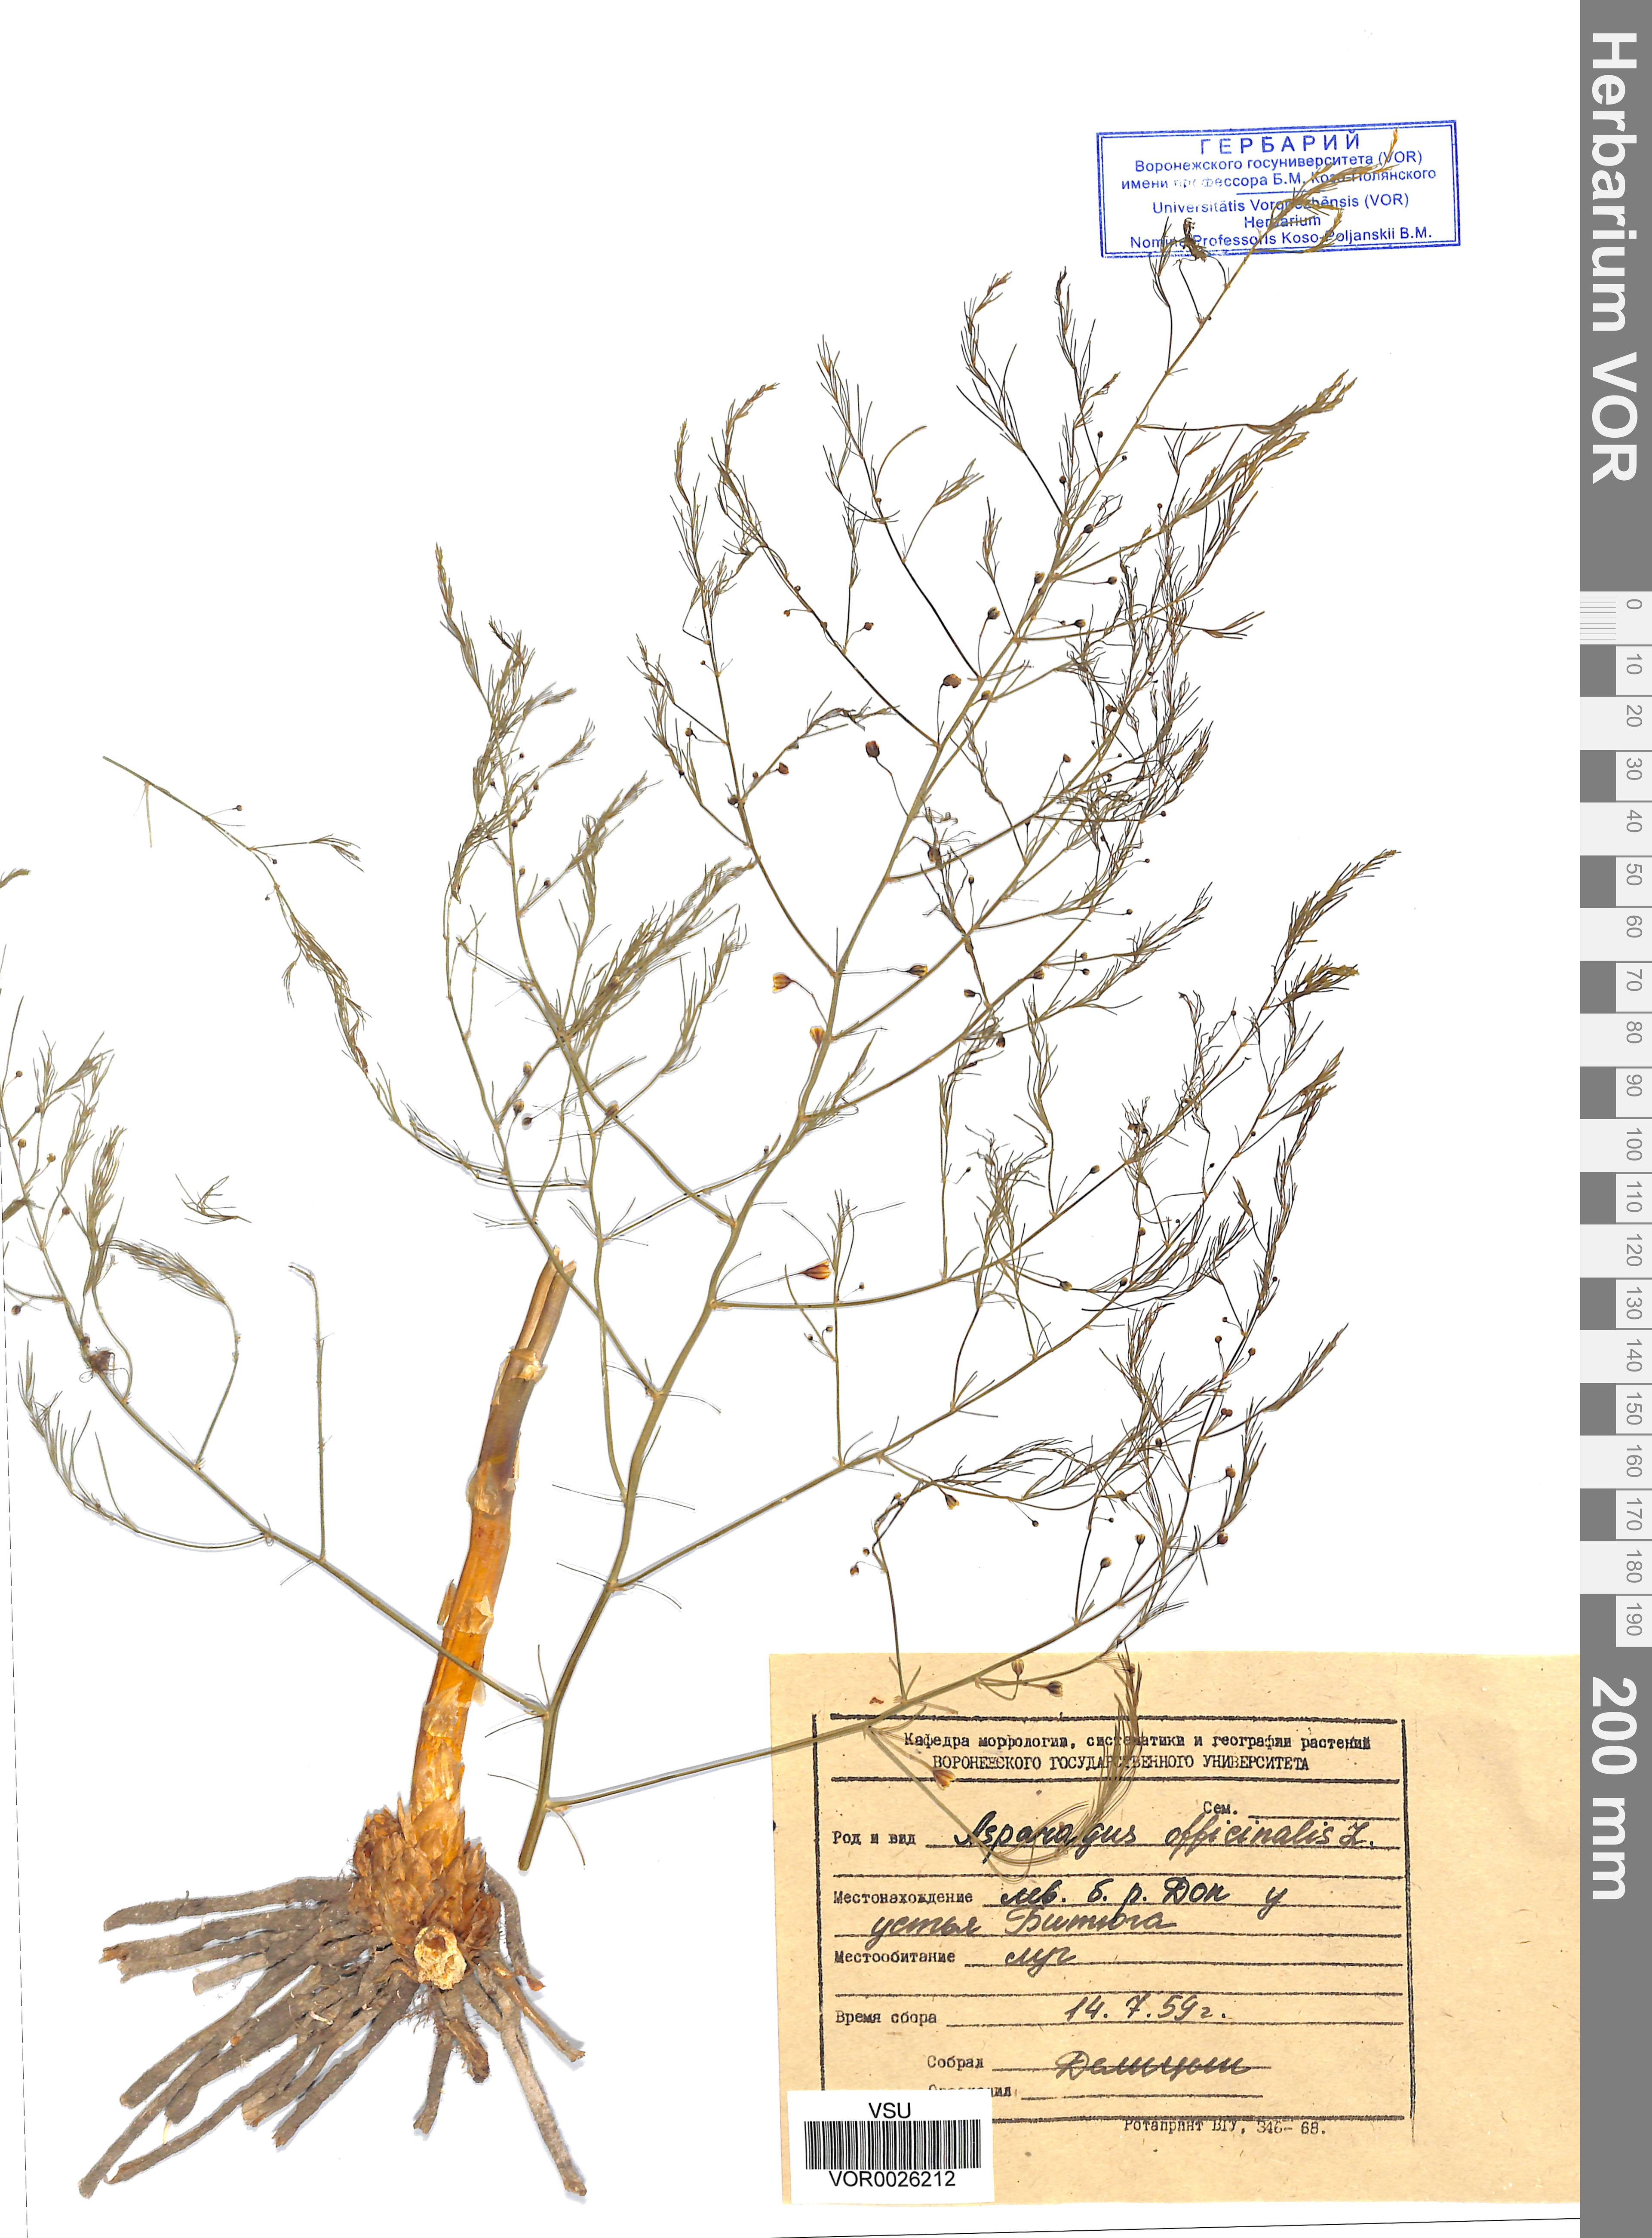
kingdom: Plantae
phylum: Tracheophyta
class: Liliopsida
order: Asparagales
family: Asparagaceae
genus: Asparagus
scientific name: Asparagus officinalis
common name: Garden asparagus
